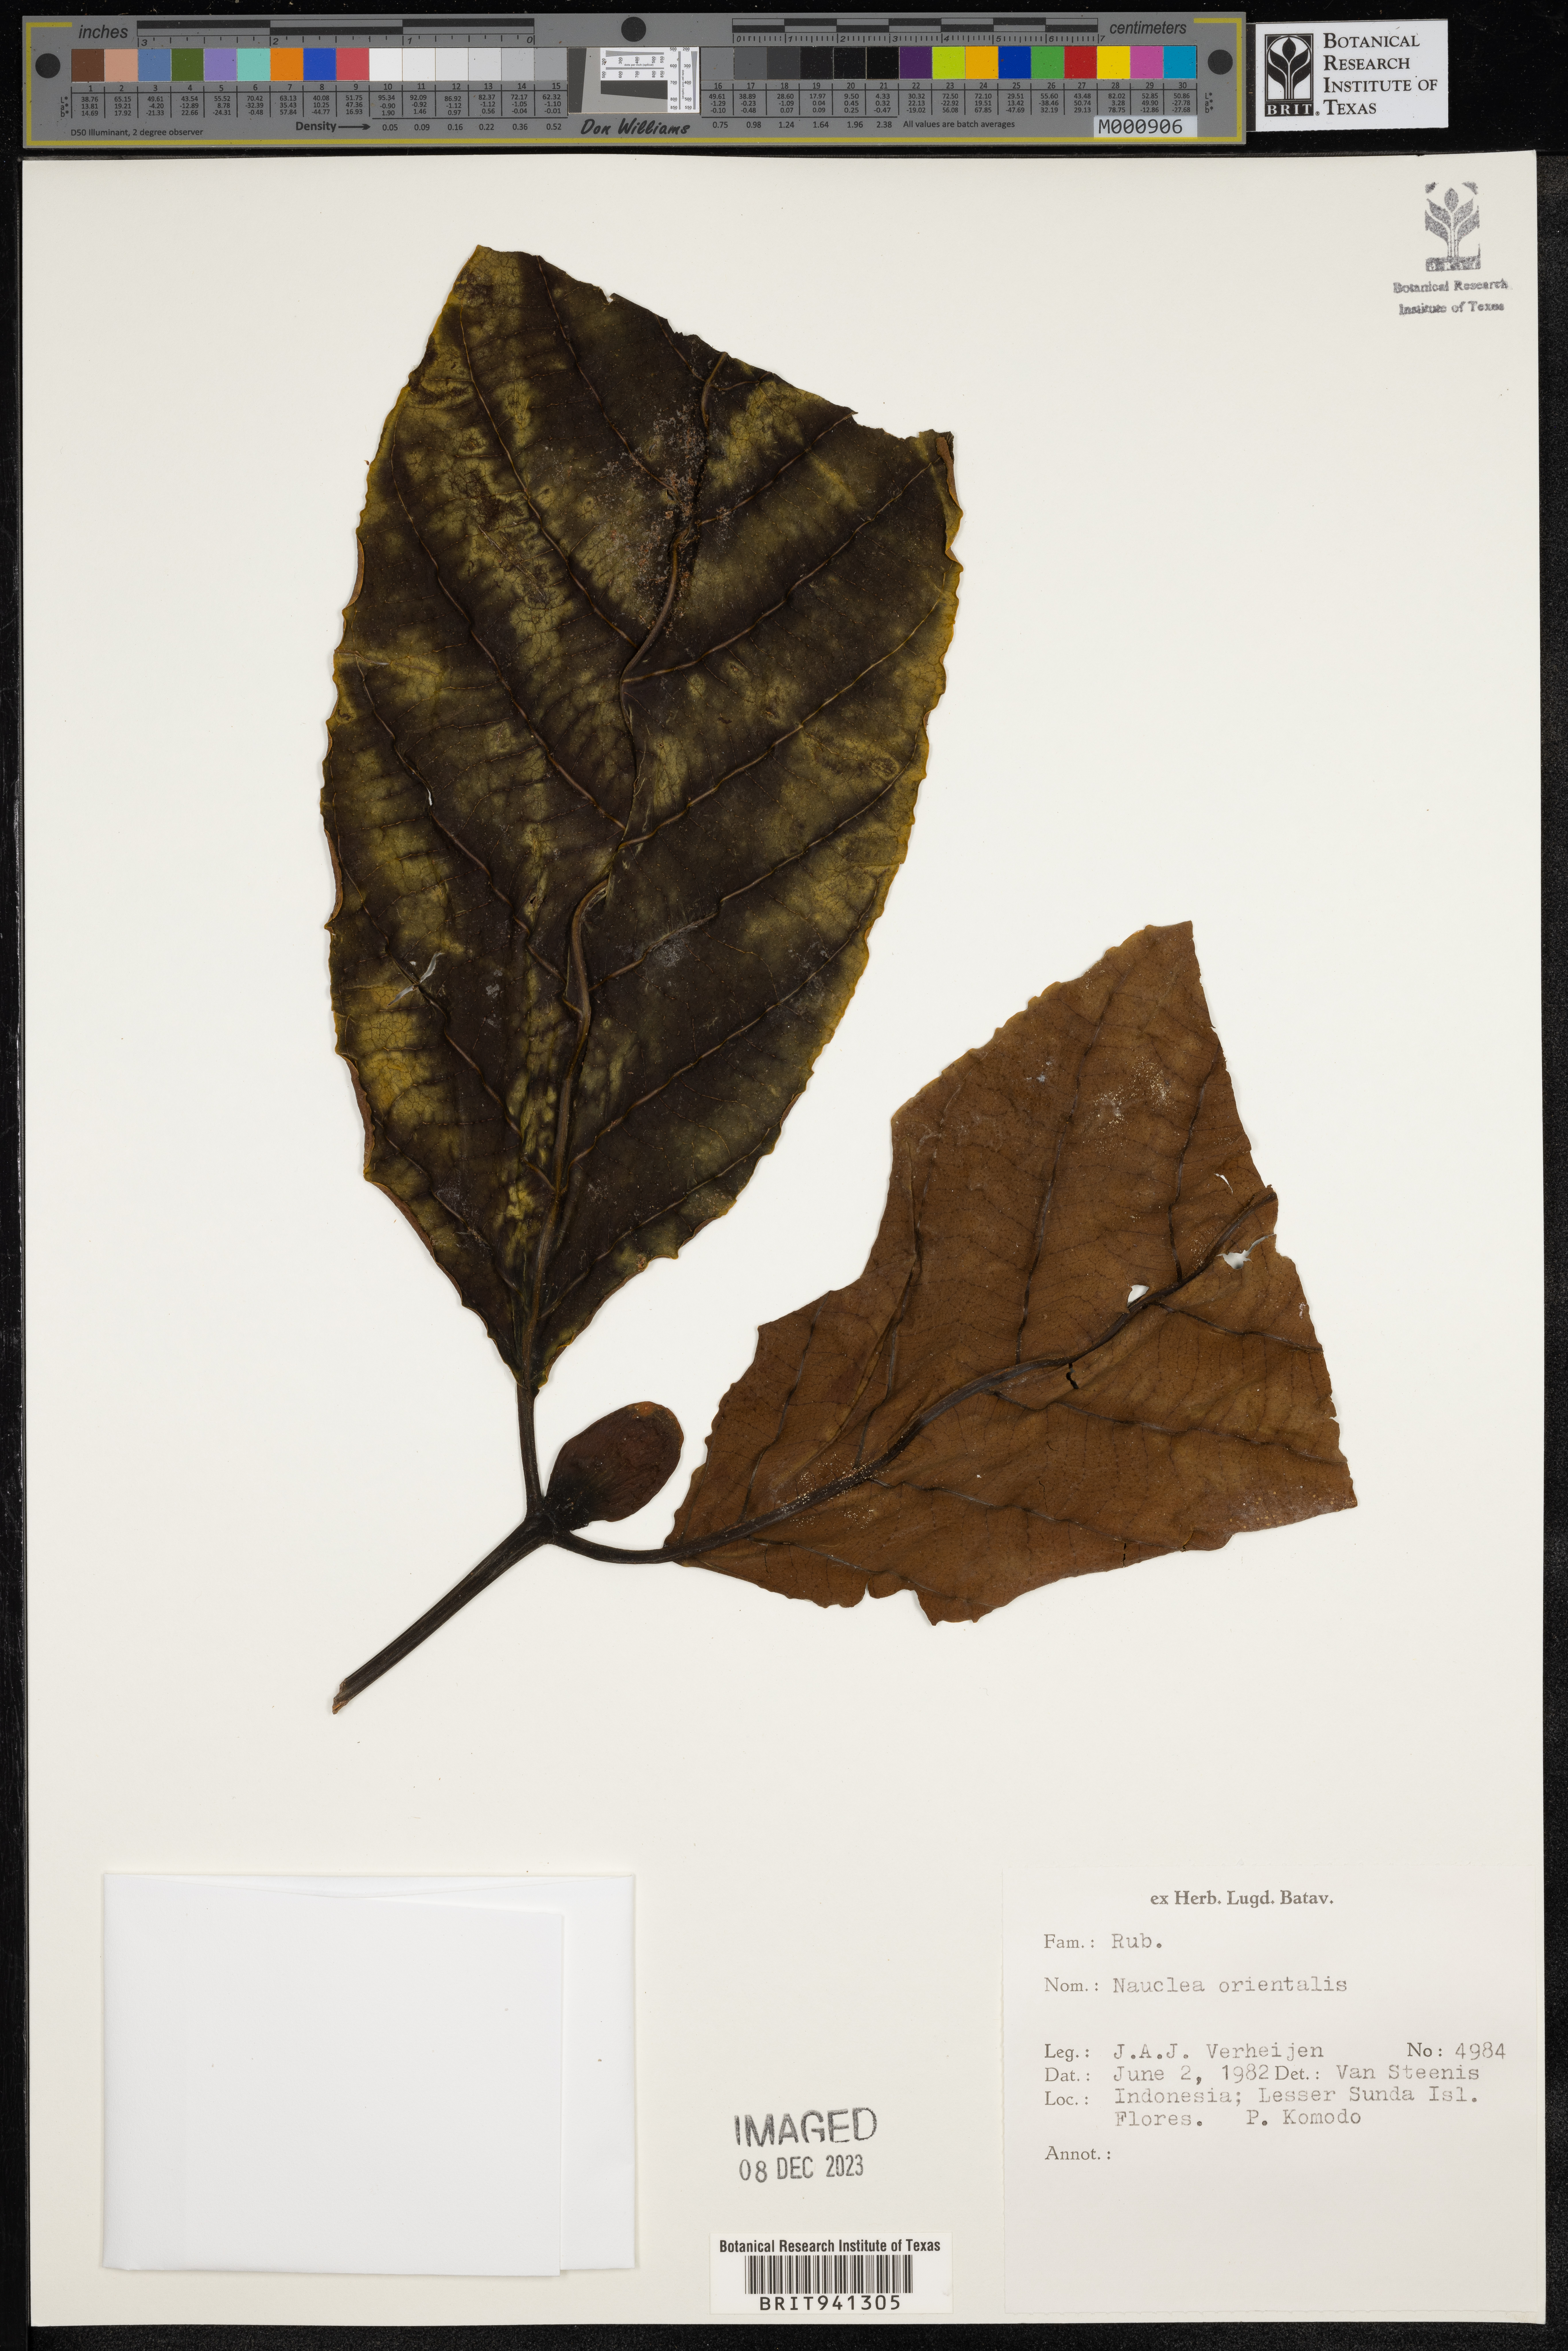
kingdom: Plantae
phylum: Tracheophyta
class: Magnoliopsida
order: Gentianales
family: Rubiaceae
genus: Nauclea
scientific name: Nauclea
